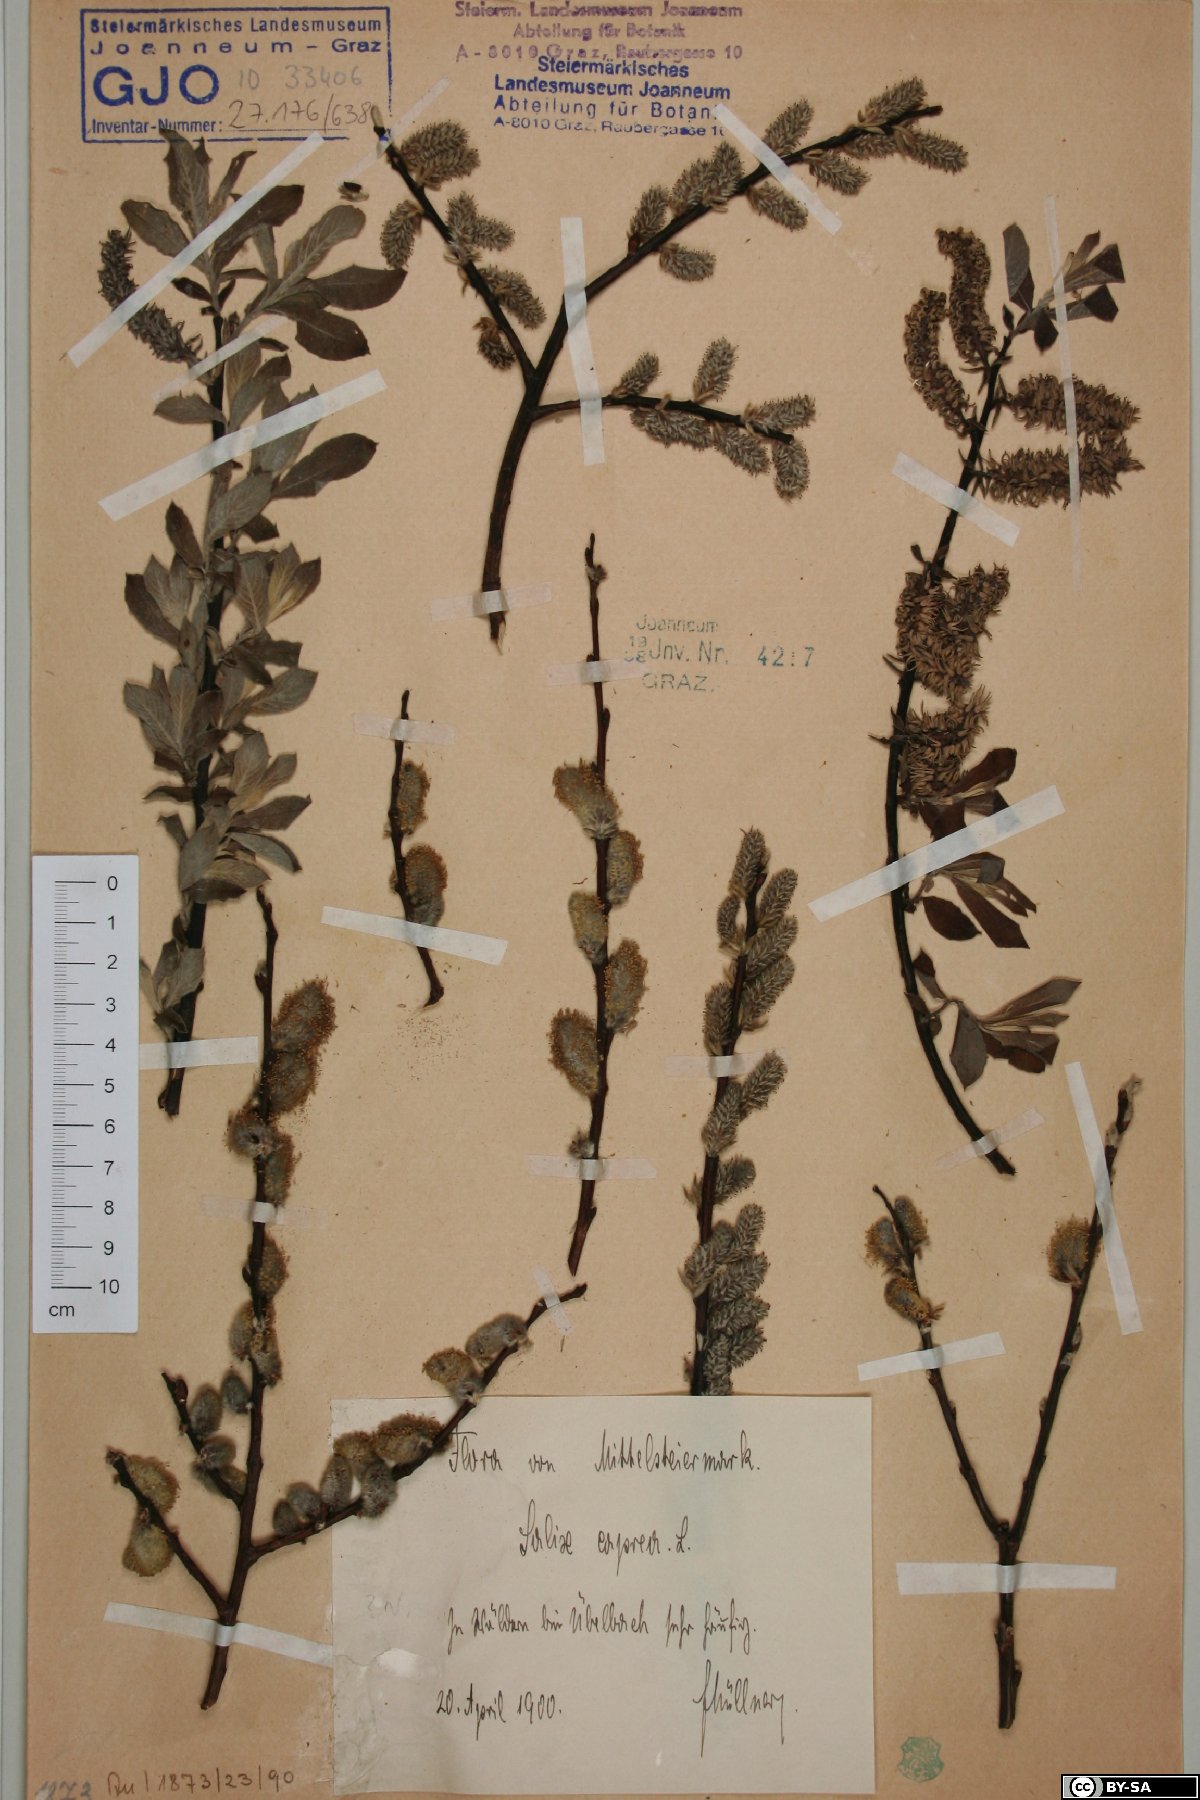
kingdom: Plantae
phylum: Tracheophyta
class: Magnoliopsida
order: Malpighiales
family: Salicaceae
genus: Salix
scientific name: Salix caprea
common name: Goat willow
